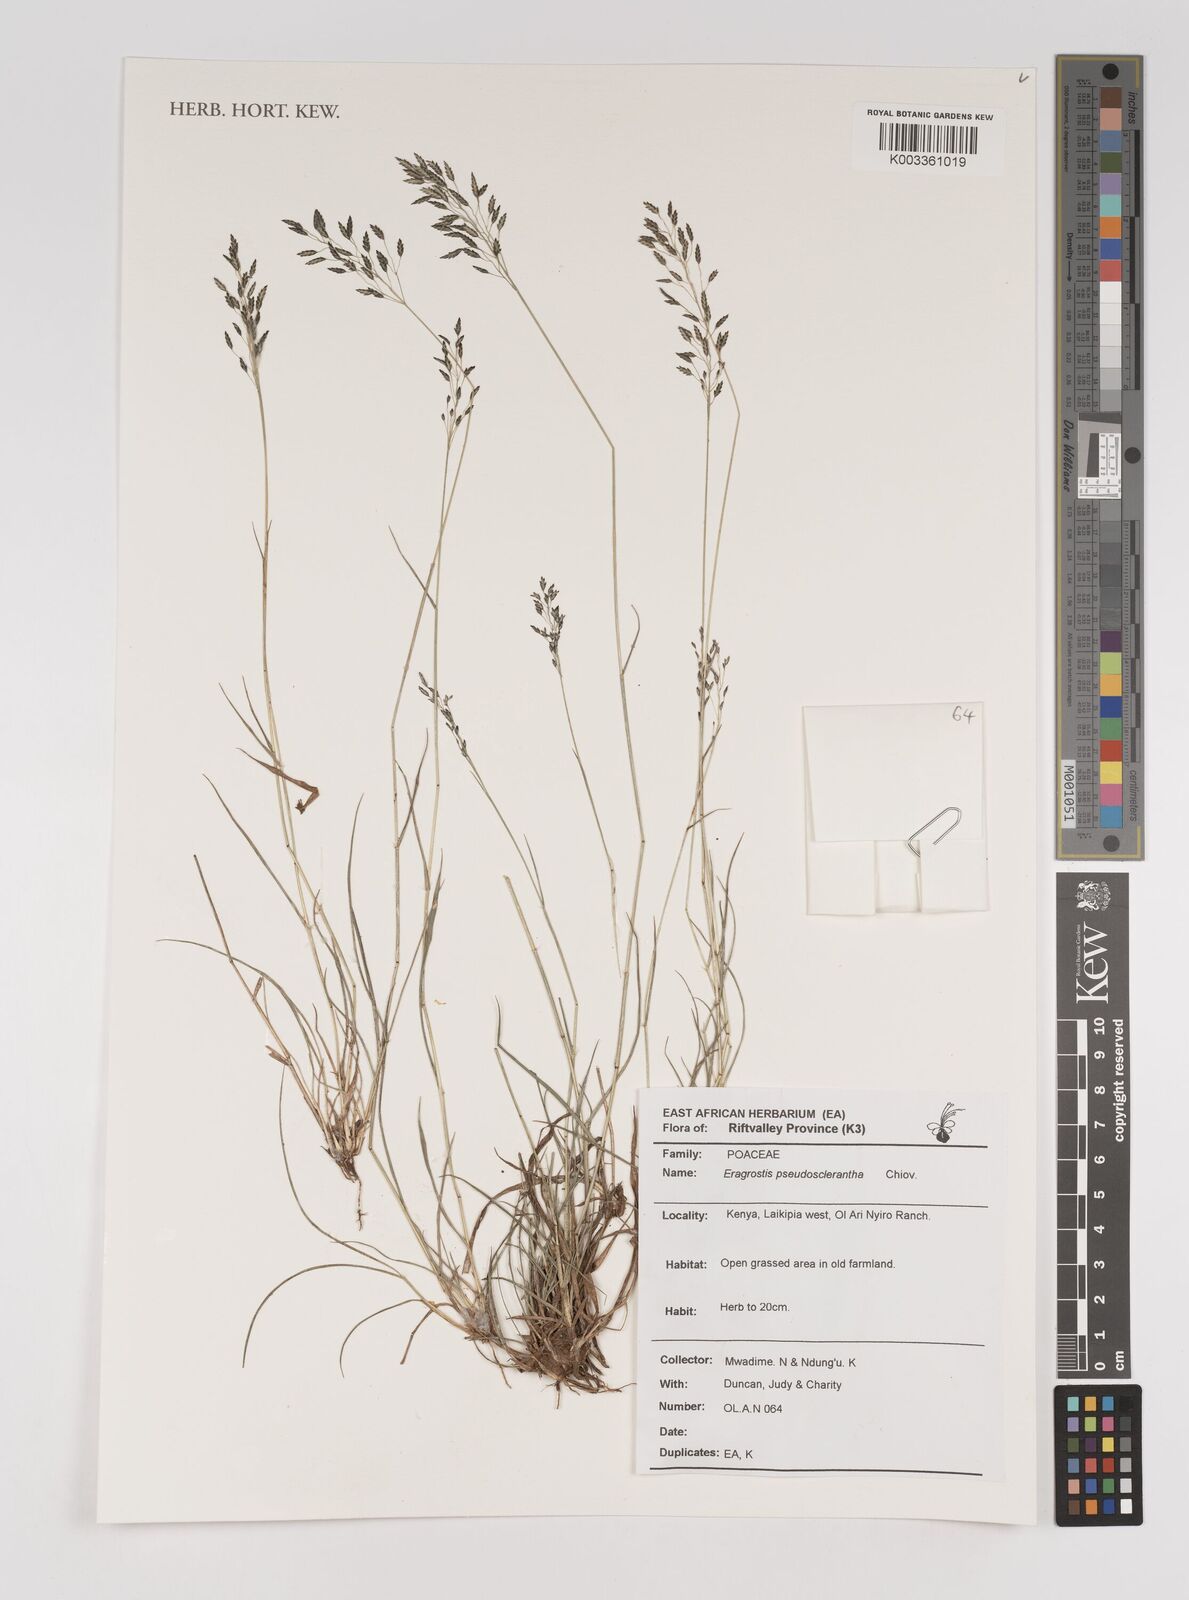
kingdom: Plantae
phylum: Tracheophyta
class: Liliopsida
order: Poales
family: Poaceae
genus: Eragrostis
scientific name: Eragrostis patentipilosa
